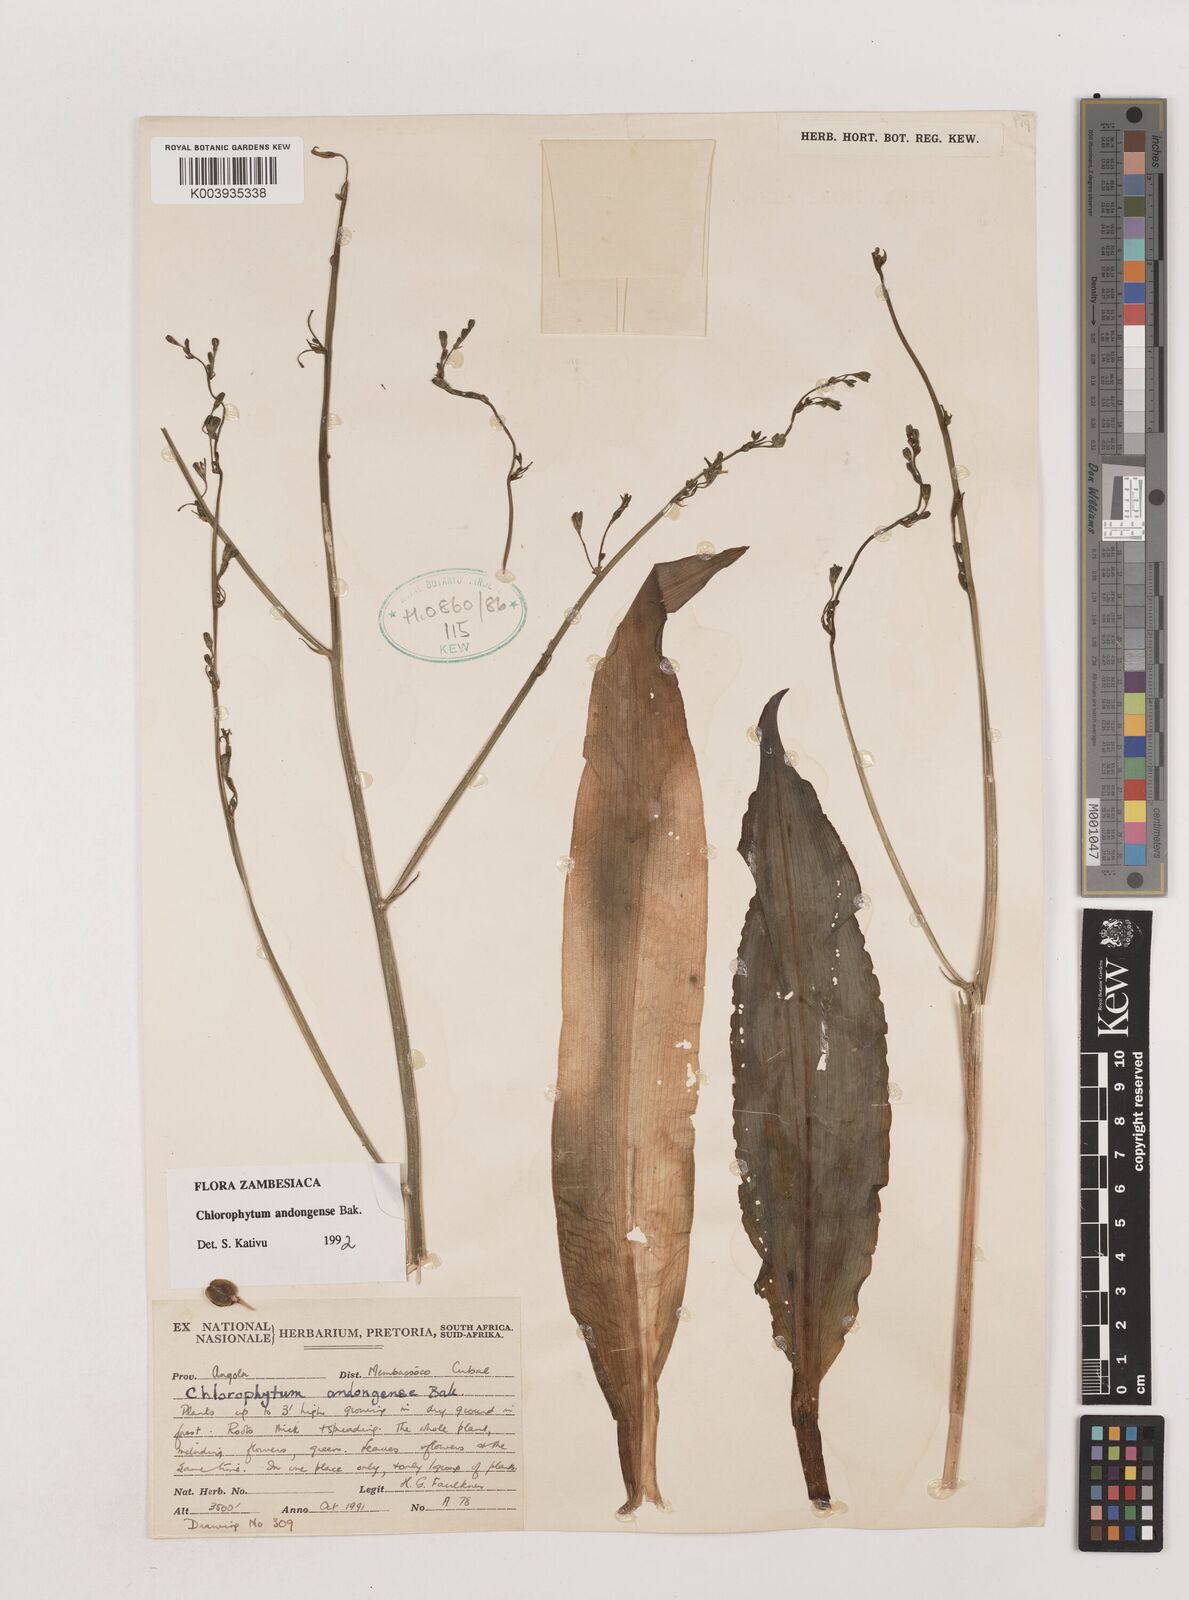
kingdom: Plantae
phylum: Tracheophyta
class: Liliopsida
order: Asparagales
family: Asparagaceae
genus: Chlorophytum
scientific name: Chlorophytum andongense
